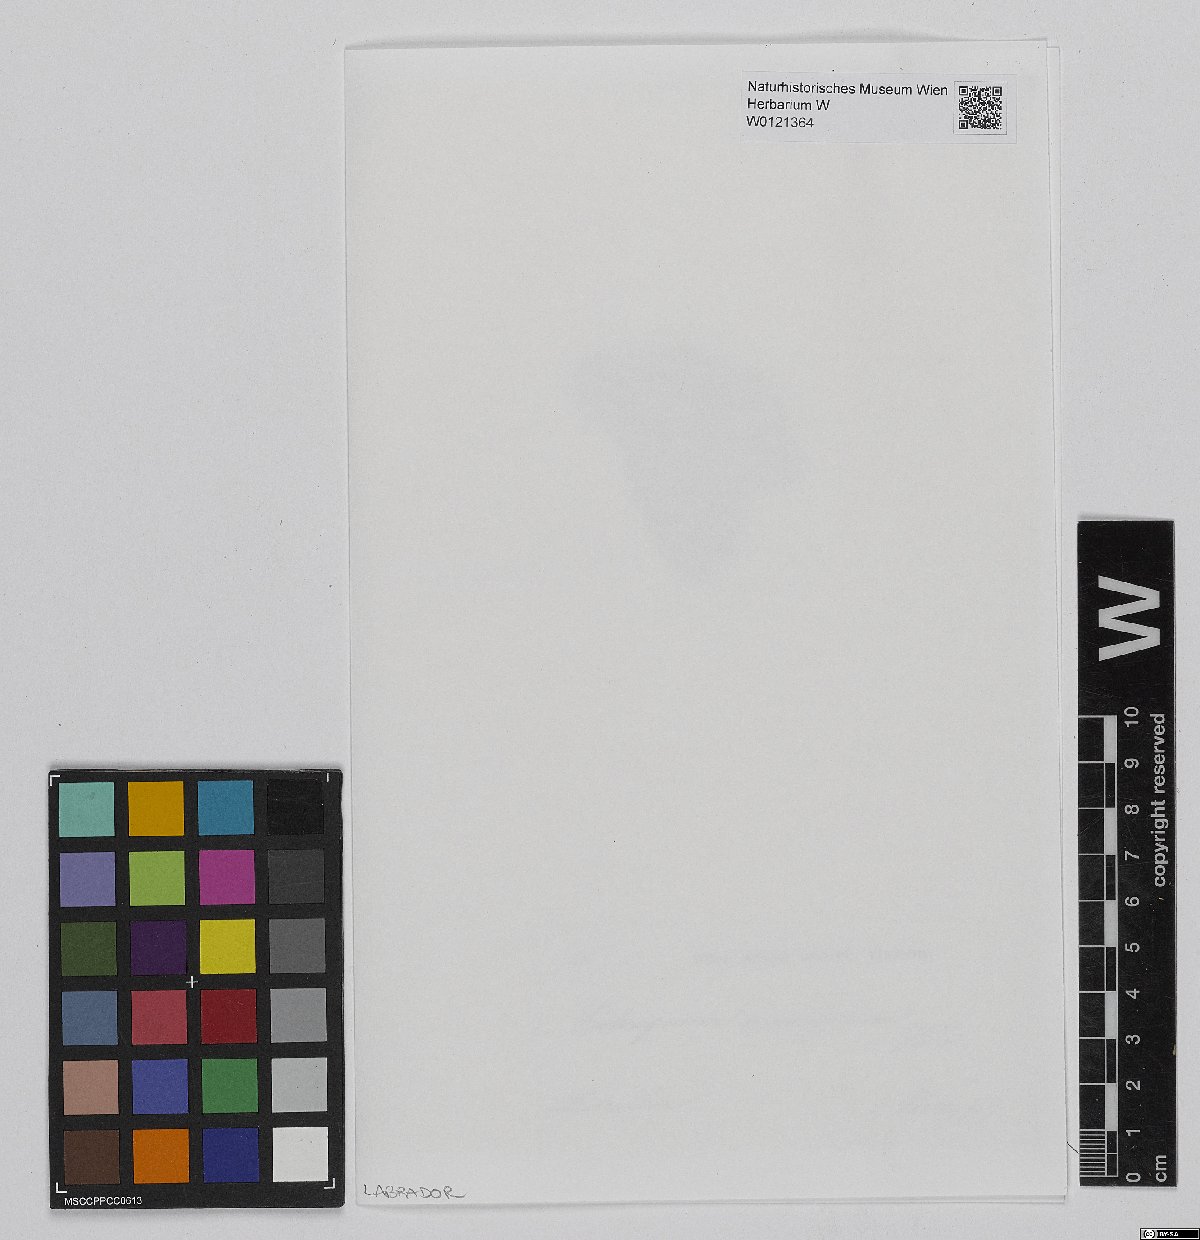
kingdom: Plantae
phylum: Bryophyta
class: Sphagnopsida
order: Sphagnales
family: Sphagnaceae
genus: Sphagnum
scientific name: Sphagnum capillifolium
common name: Small red peat moss
